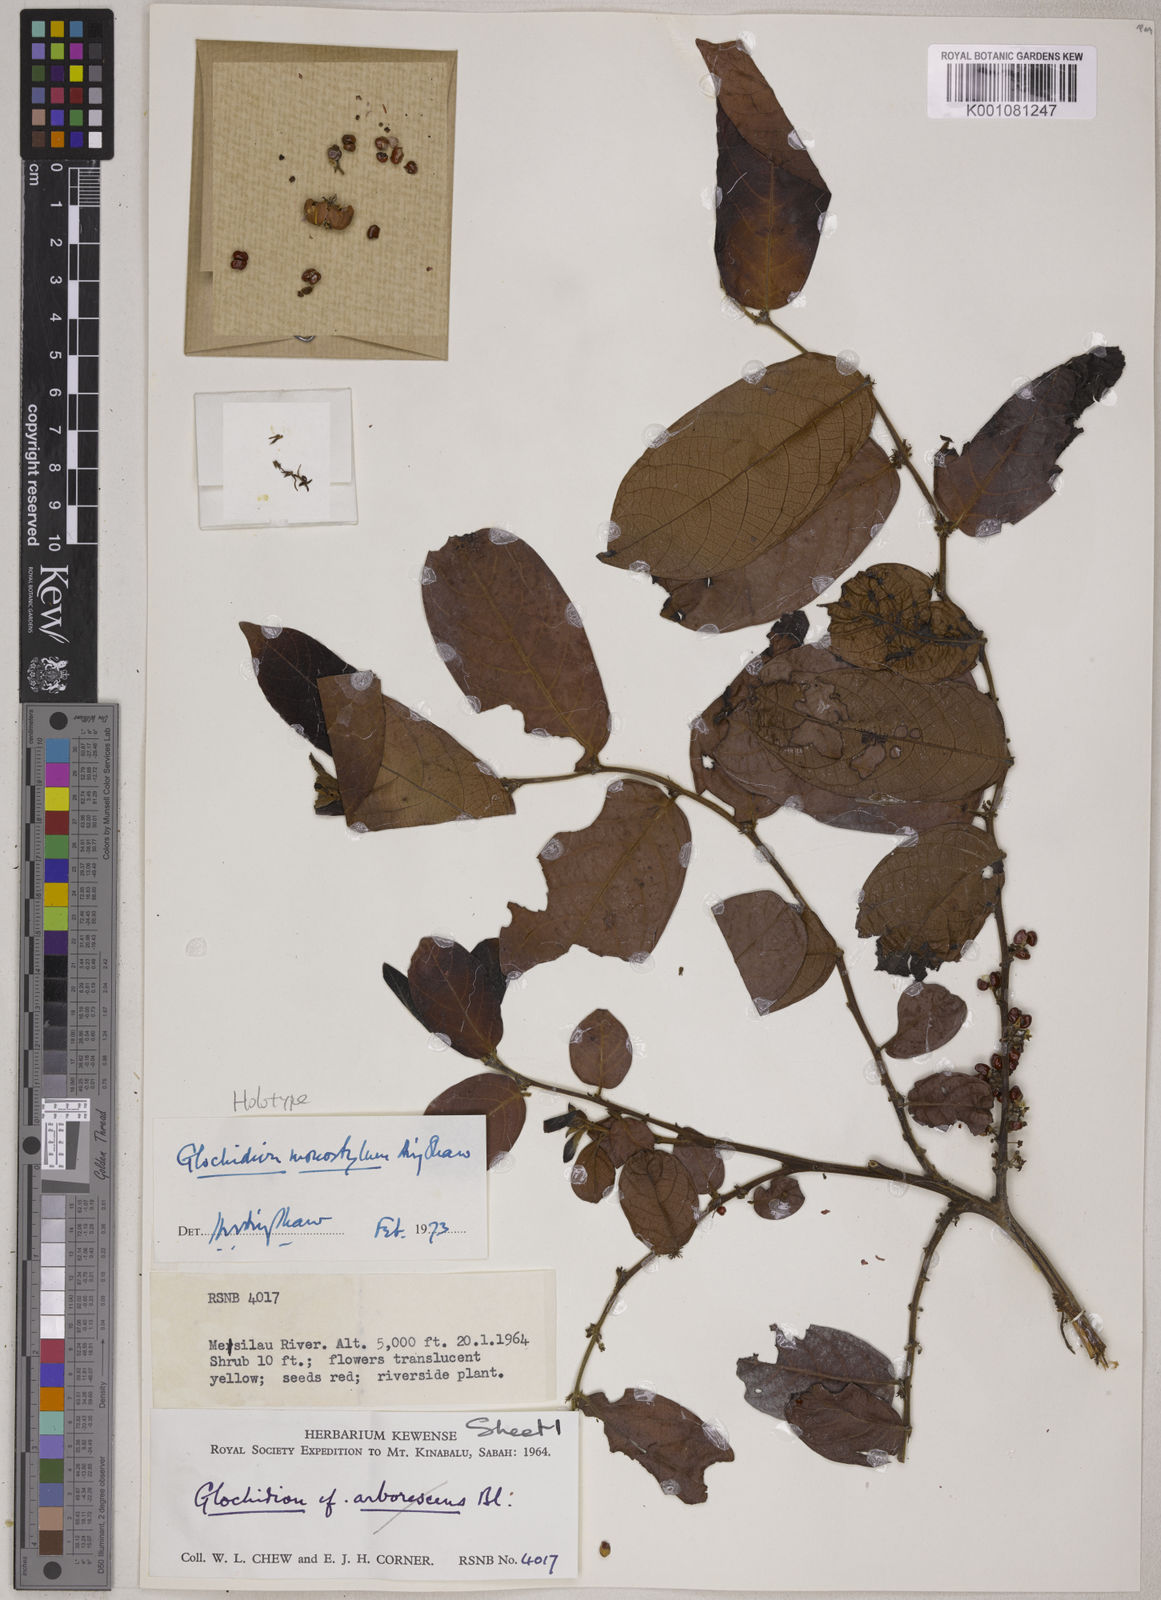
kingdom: Plantae
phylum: Tracheophyta
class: Magnoliopsida
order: Malpighiales
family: Phyllanthaceae
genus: Glochidion
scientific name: Glochidion monostylum
